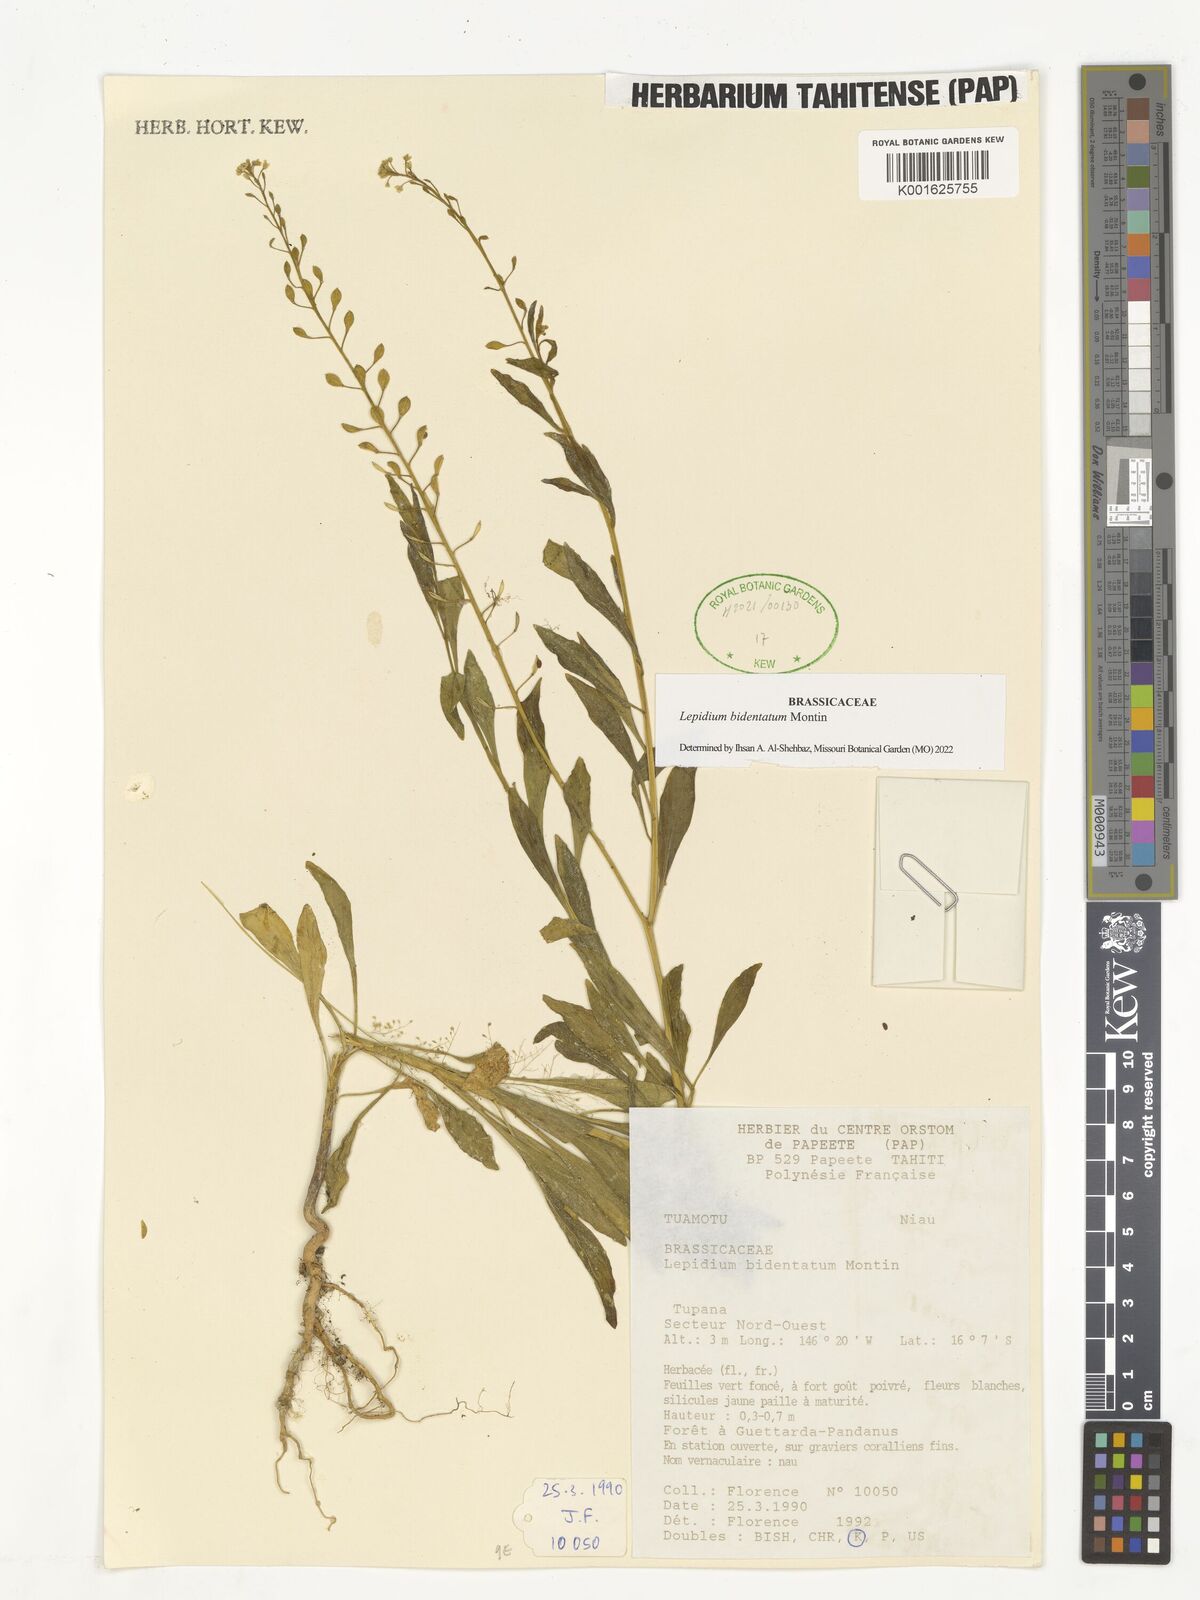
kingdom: Plantae
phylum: Tracheophyta
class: Magnoliopsida
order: Brassicales
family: Brassicaceae
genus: Lepidium
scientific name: Lepidium bidentatum
